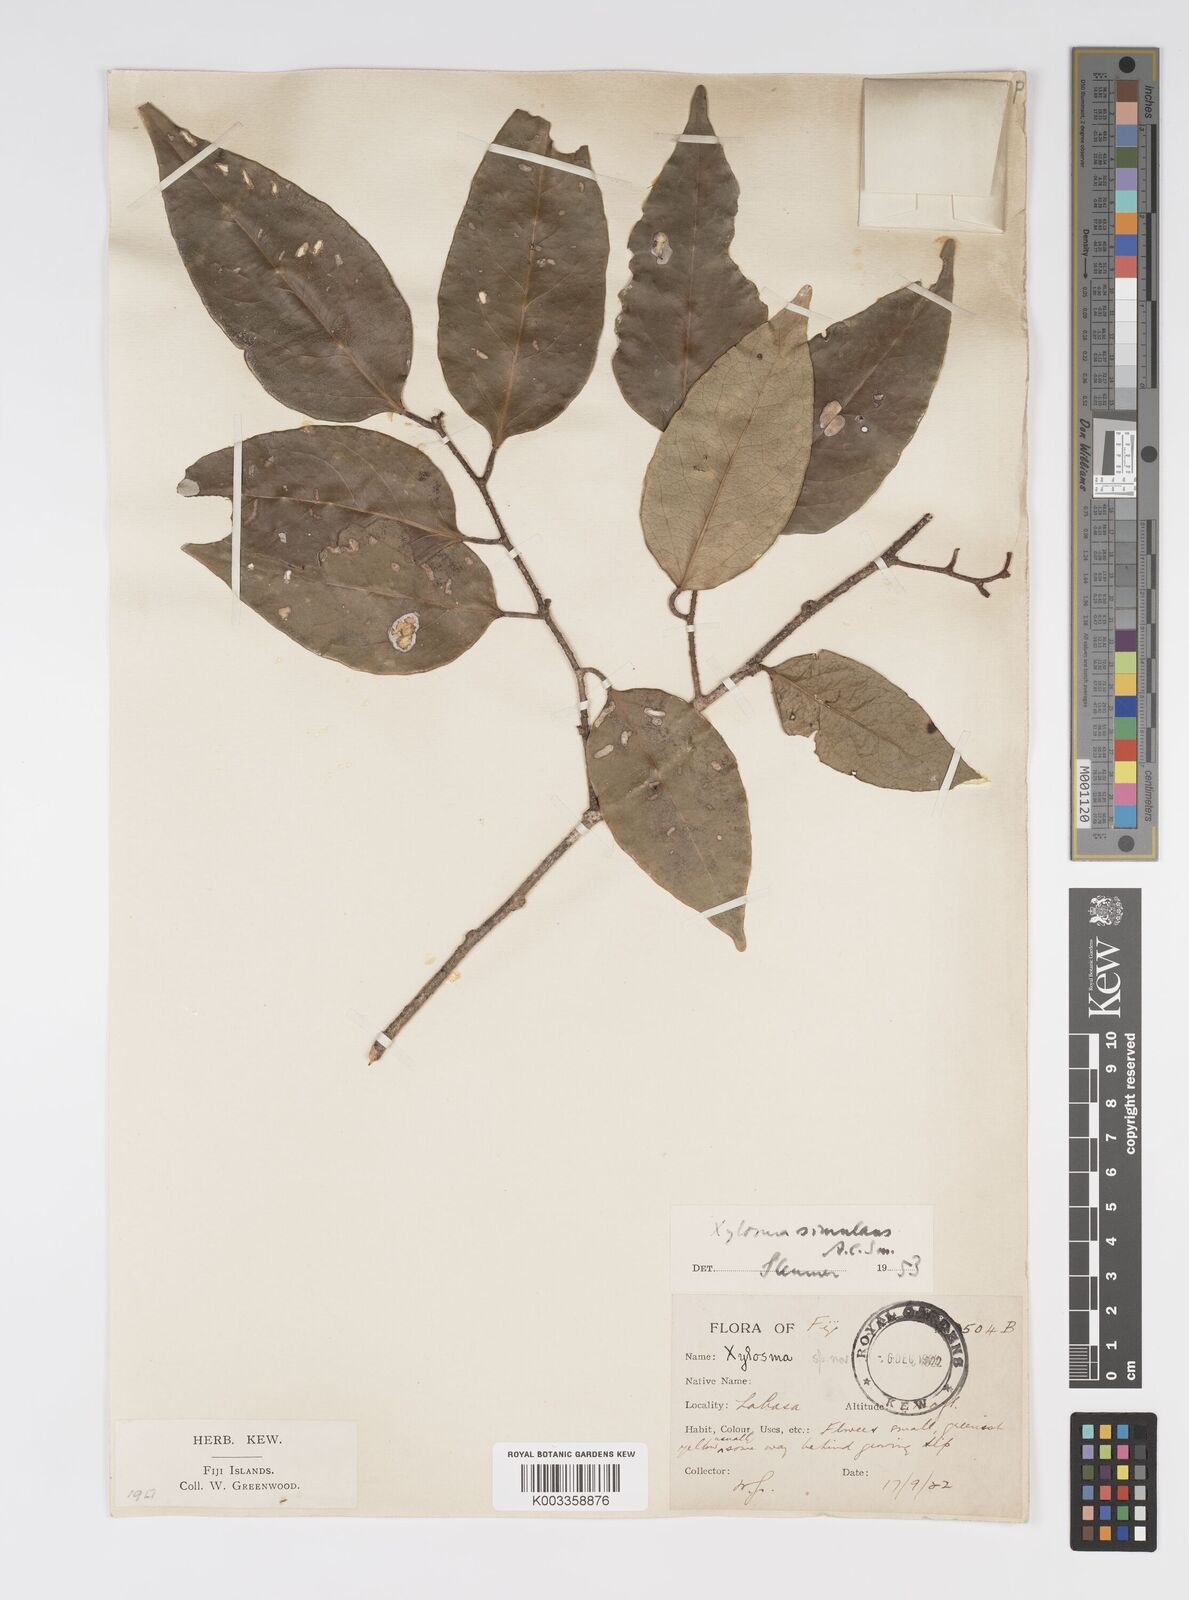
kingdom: Plantae
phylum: Tracheophyta
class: Magnoliopsida
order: Malpighiales
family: Salicaceae
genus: Xylosma
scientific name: Xylosma simulans
